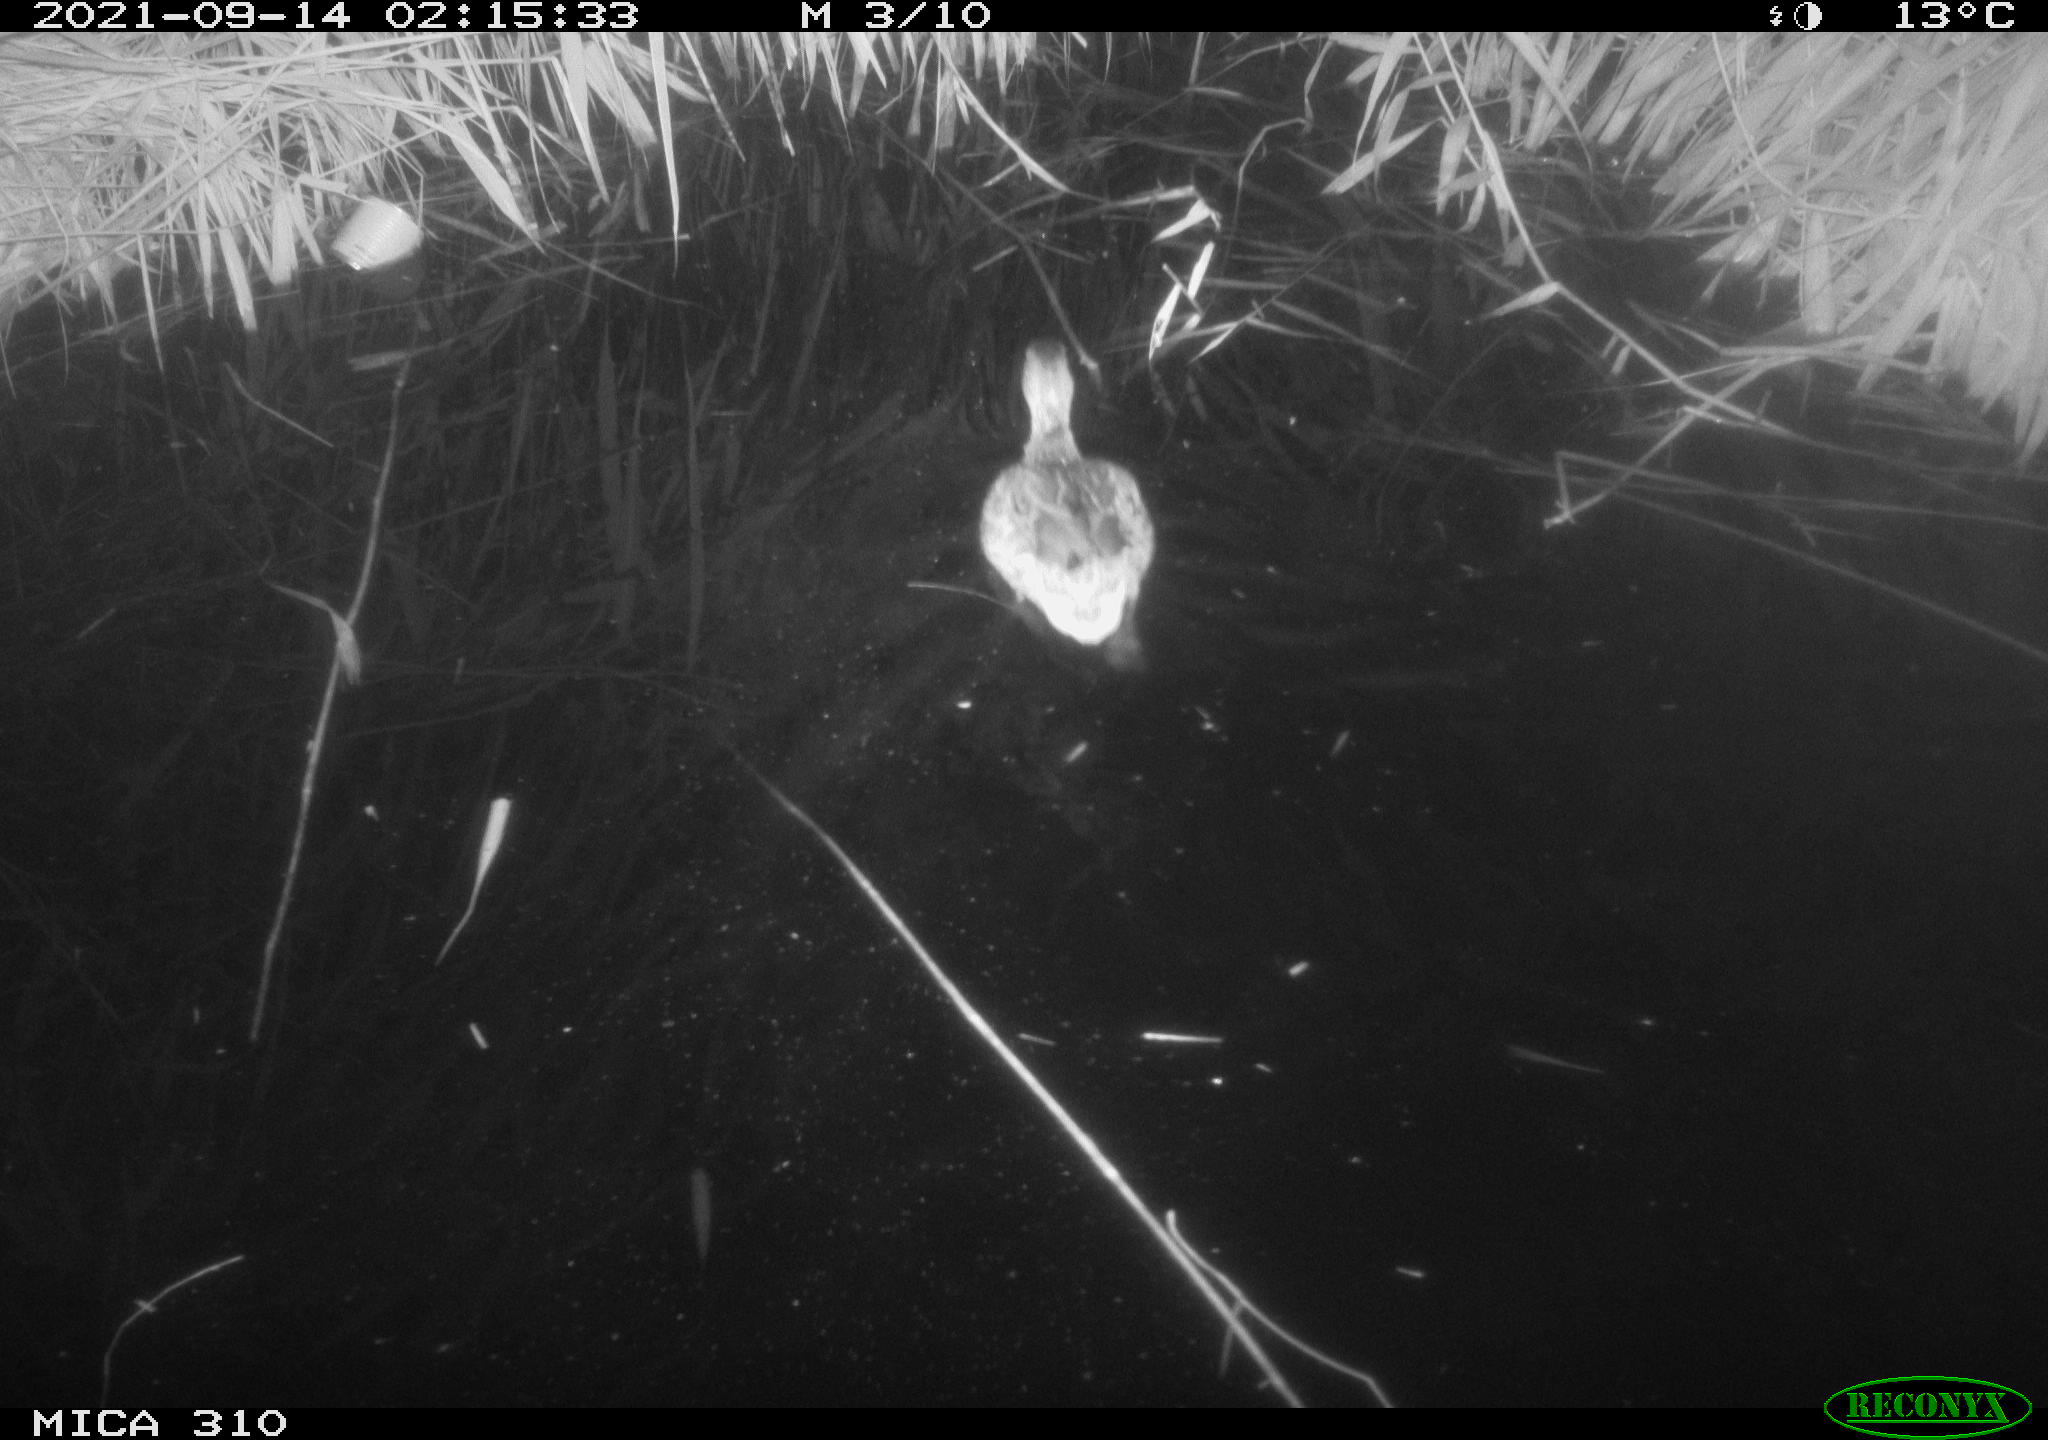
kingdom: Animalia
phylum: Chordata
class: Aves
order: Anseriformes
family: Anatidae
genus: Mareca
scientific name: Mareca strepera
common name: Gadwall
